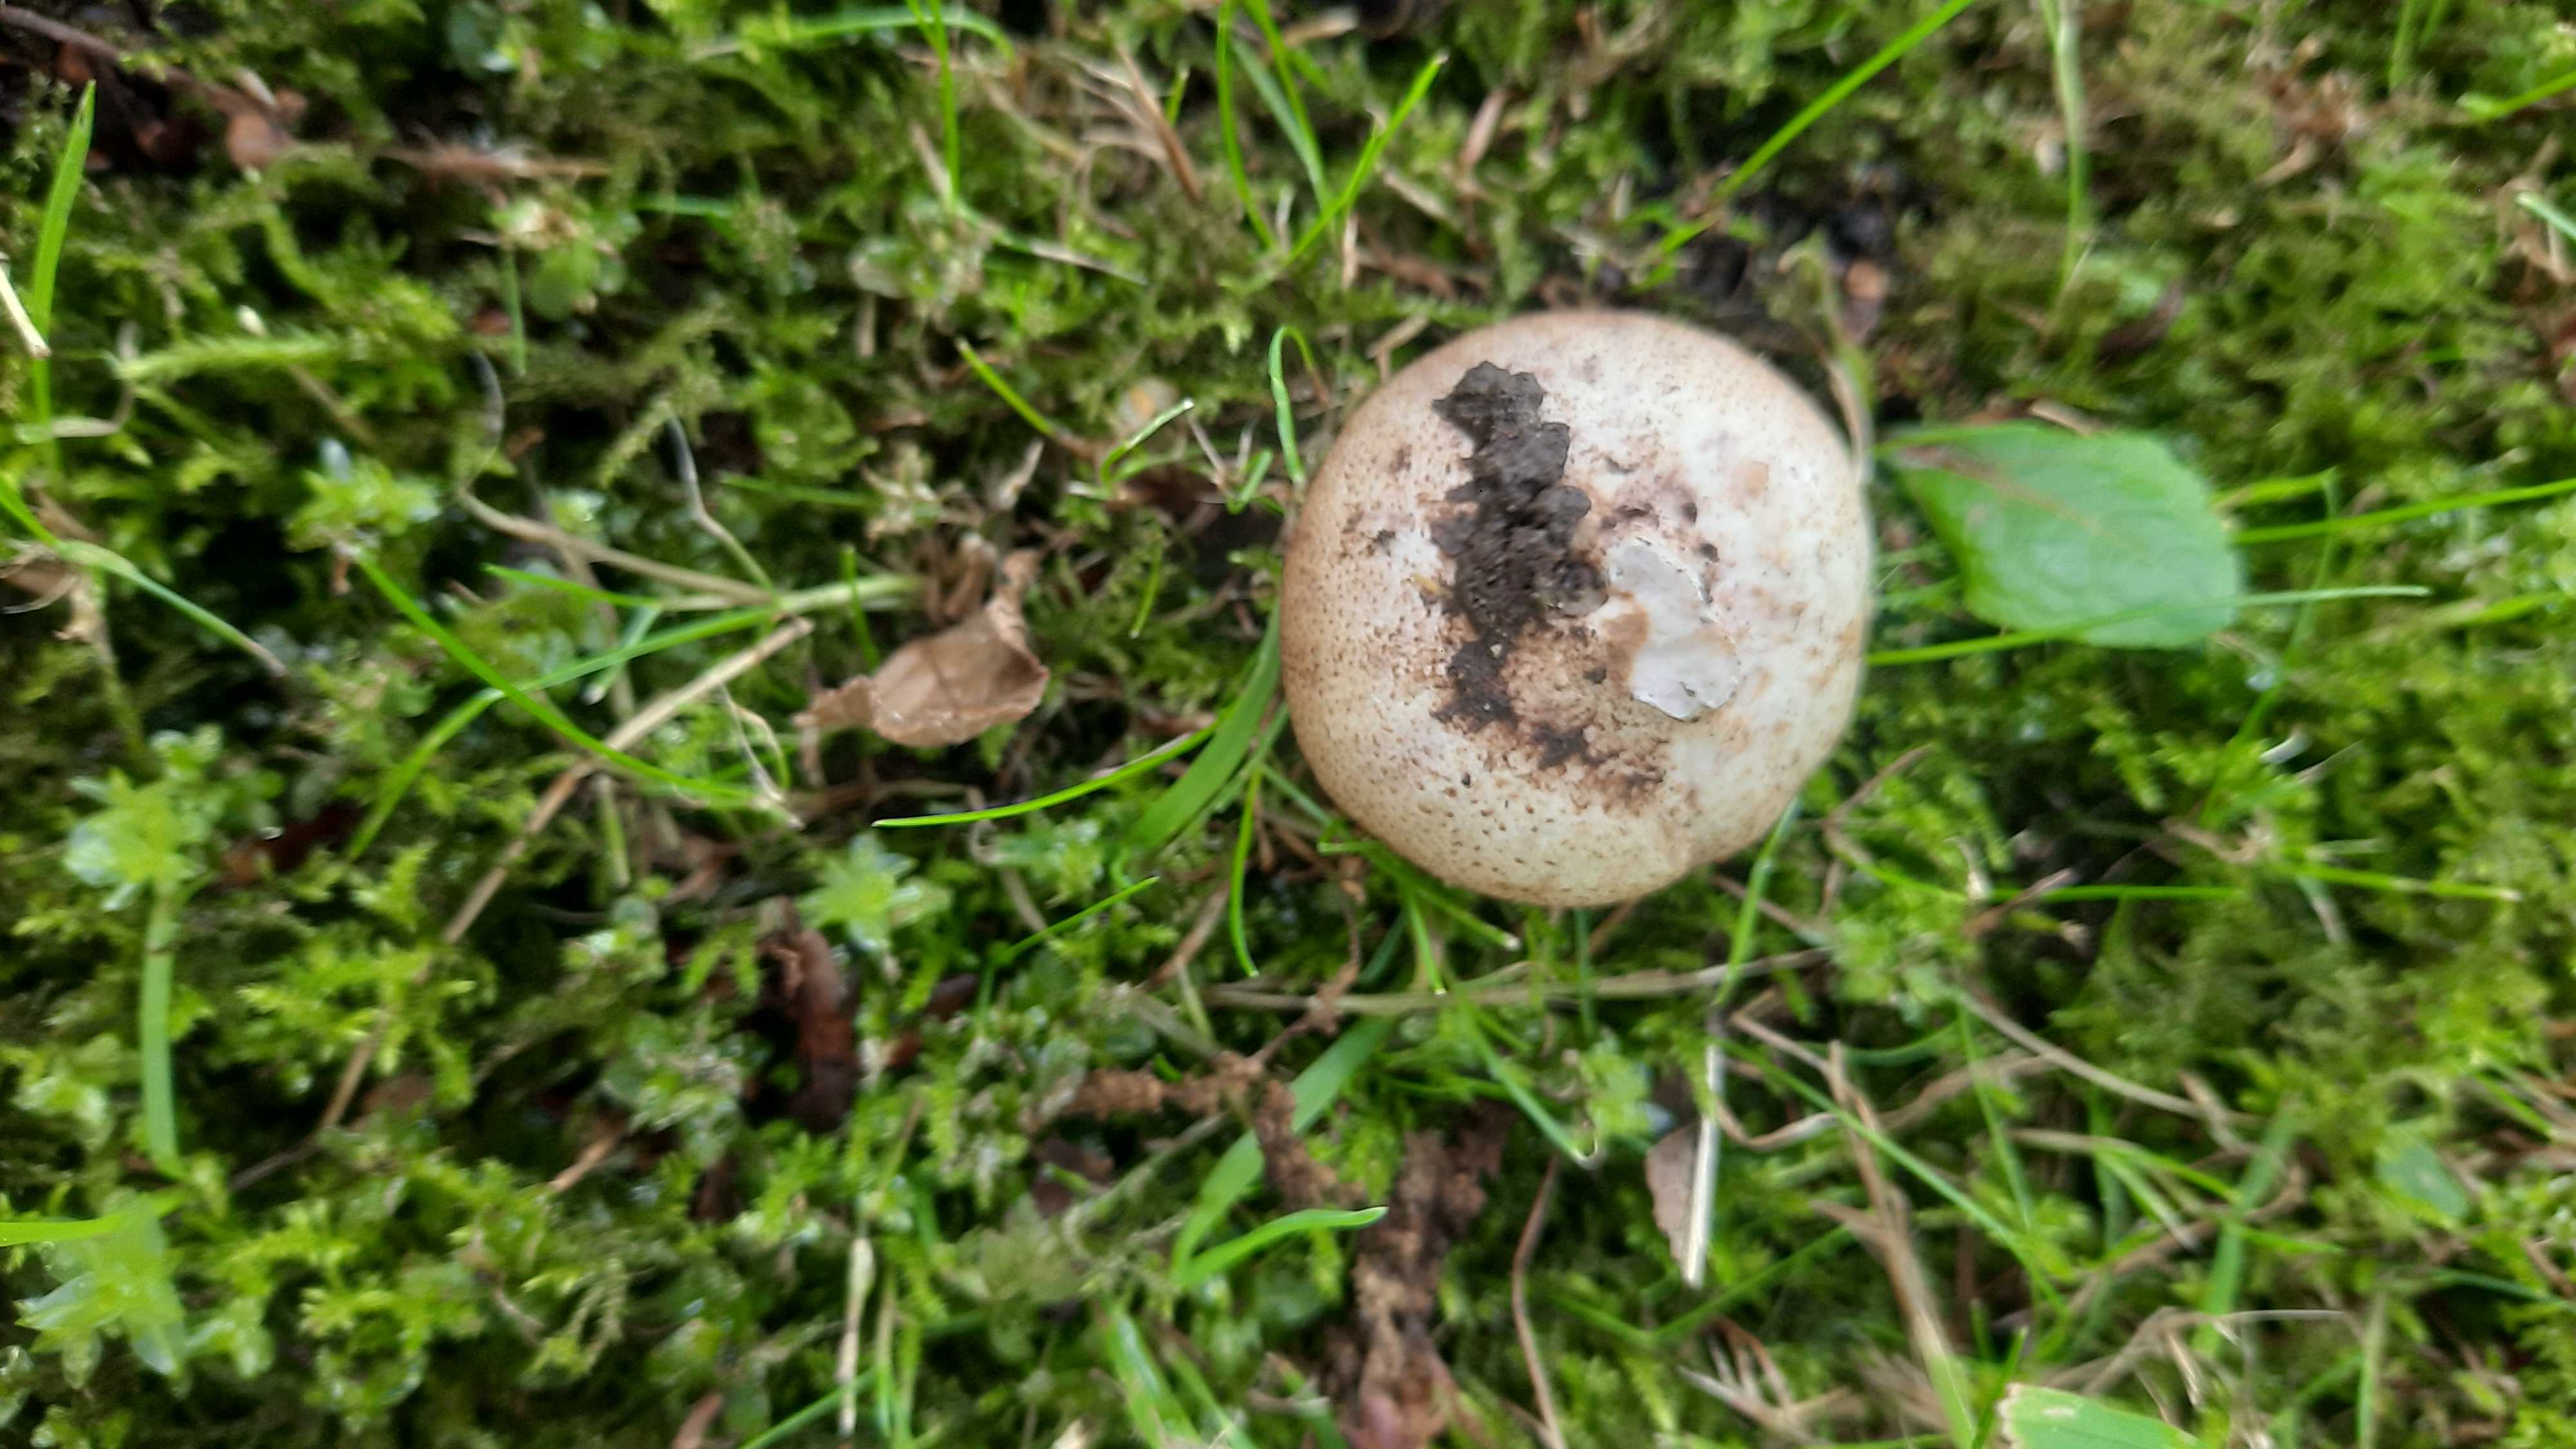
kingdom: Fungi
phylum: Basidiomycota
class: Agaricomycetes
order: Boletales
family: Sclerodermataceae
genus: Scleroderma
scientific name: Scleroderma
